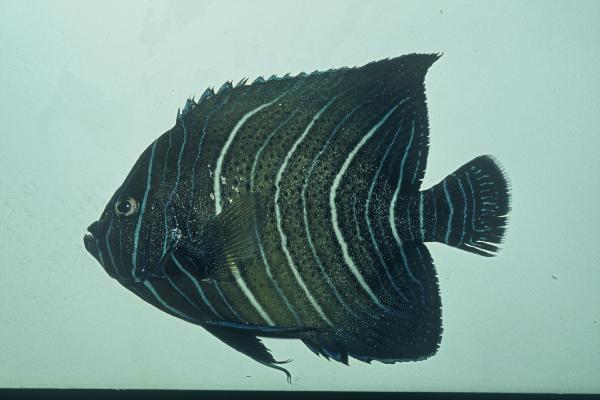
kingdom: Animalia
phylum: Chordata
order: Perciformes
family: Pomacanthidae
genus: Pomacanthus
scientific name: Pomacanthus semicirculatus
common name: Semicircle angelfish
